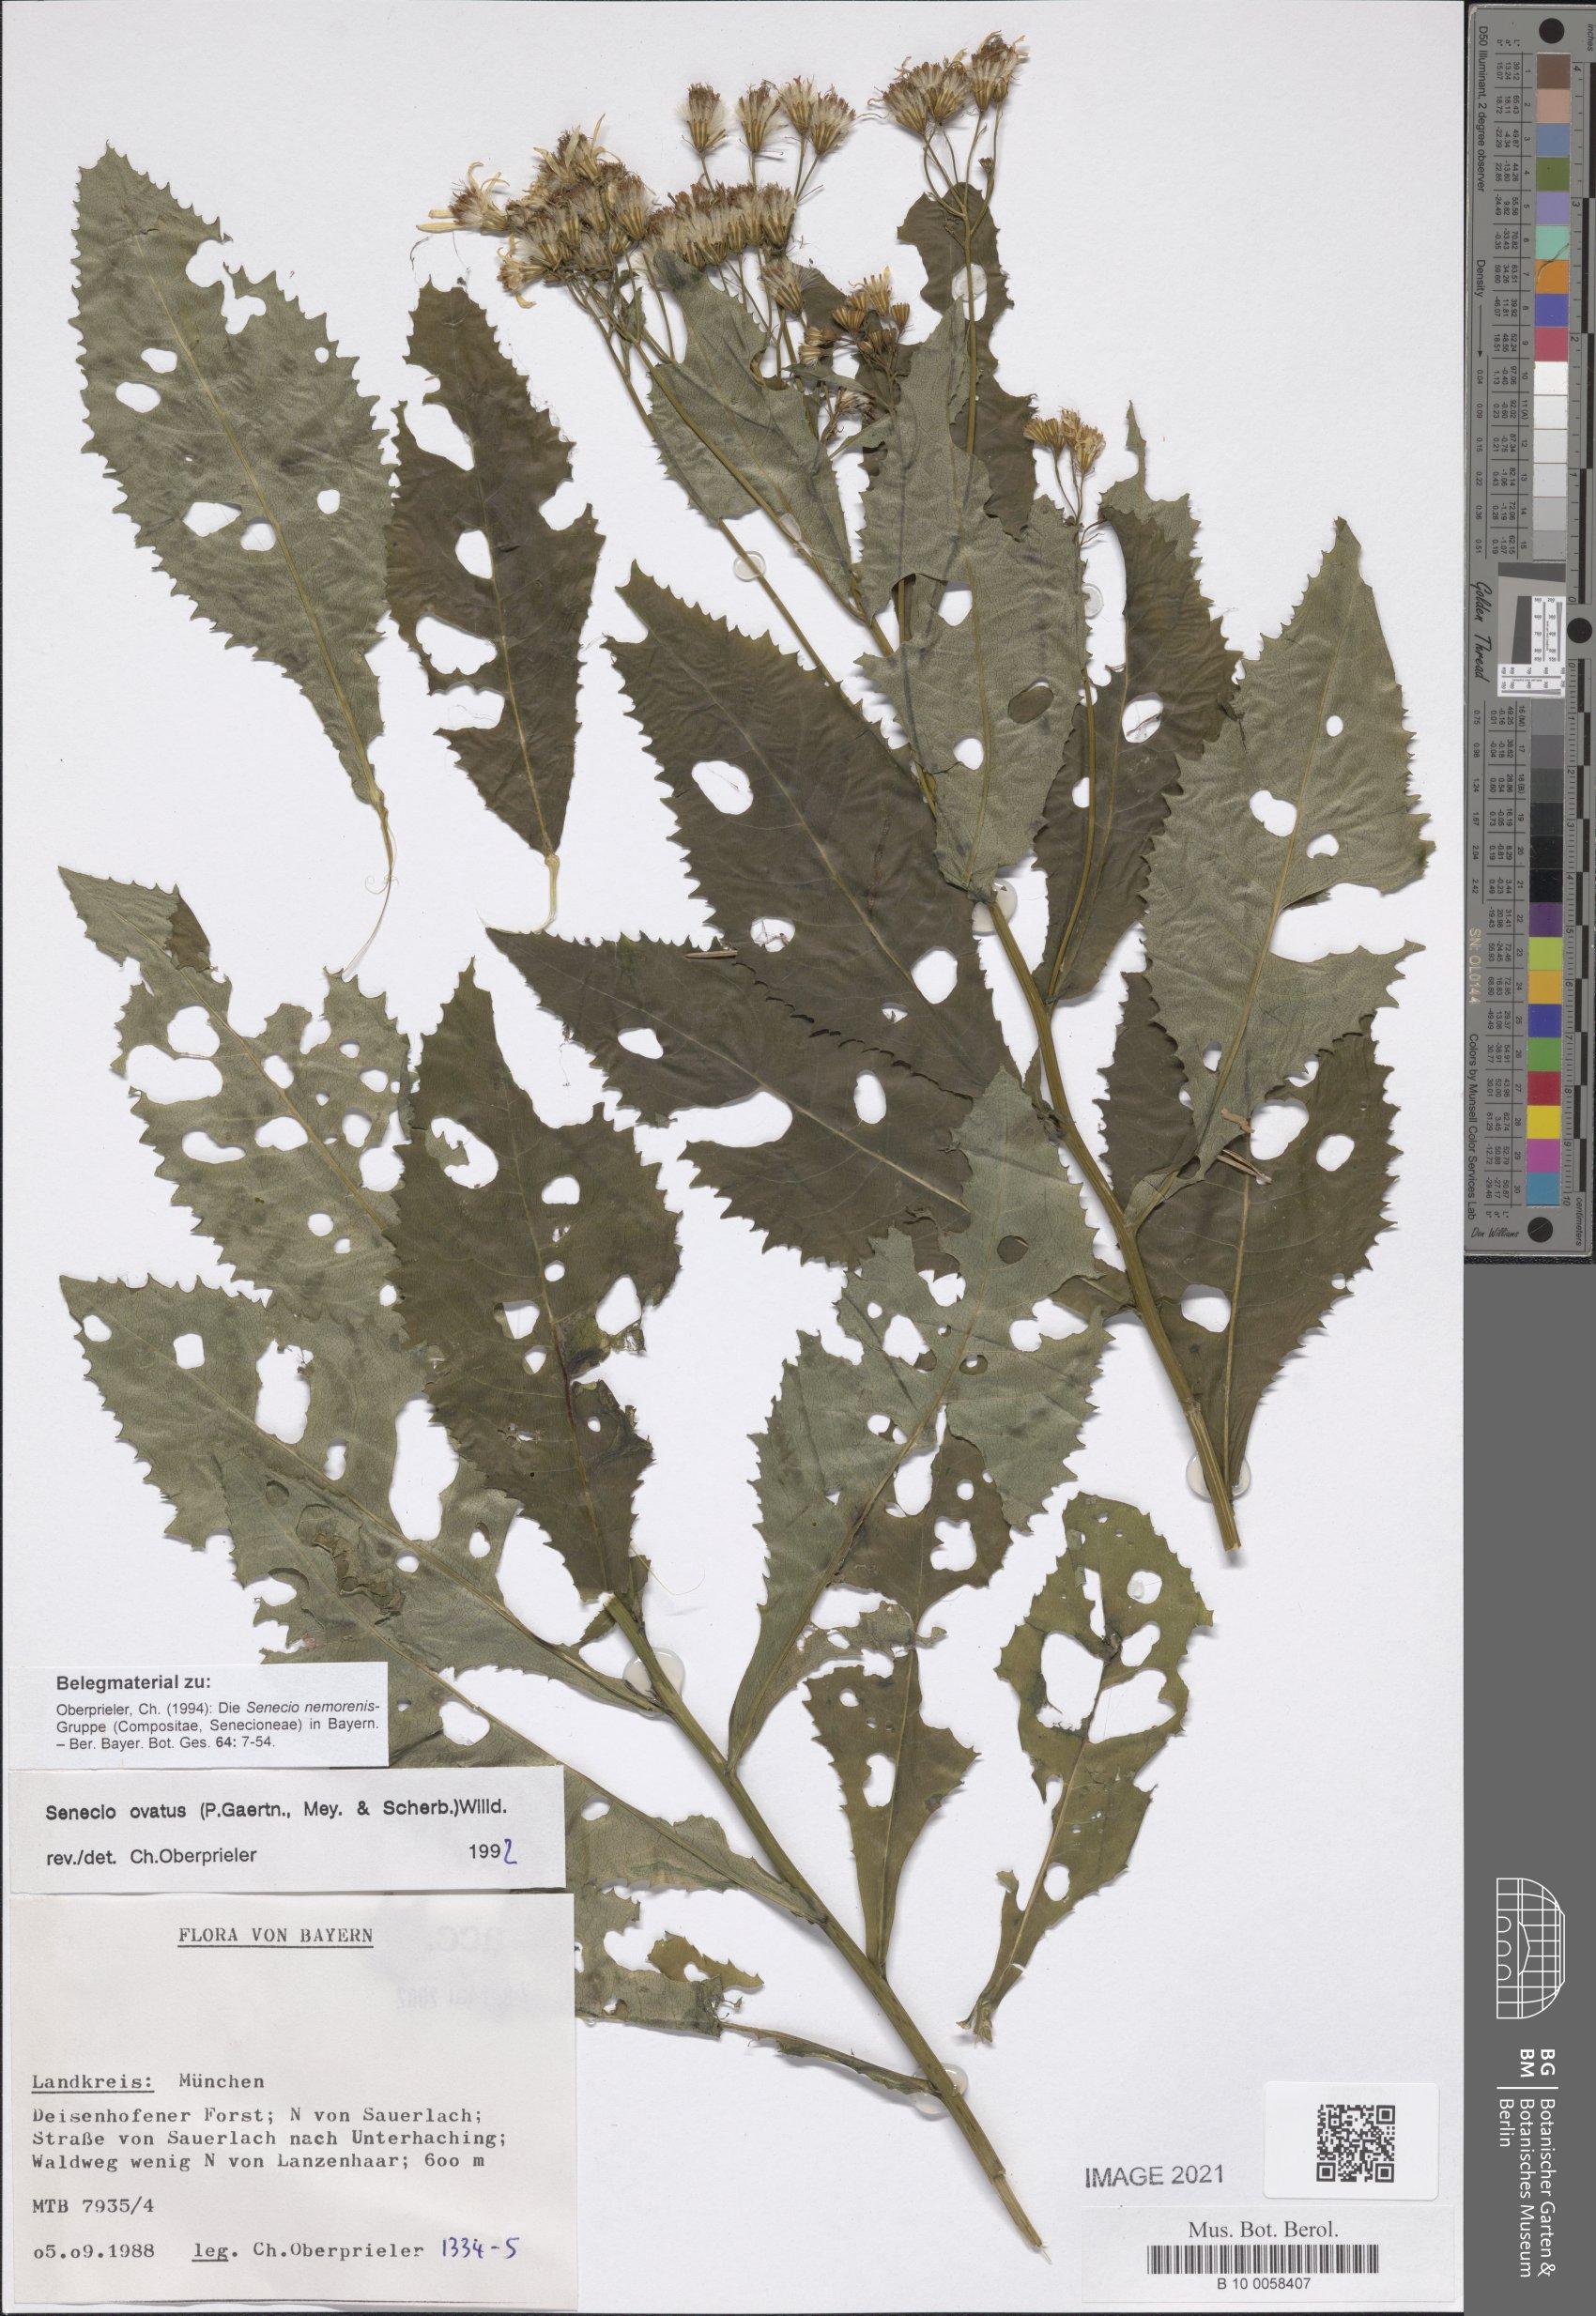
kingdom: Plantae
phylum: Tracheophyta
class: Magnoliopsida
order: Asterales
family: Asteraceae
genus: Senecio
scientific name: Senecio ovatus
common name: Wood ragwort
